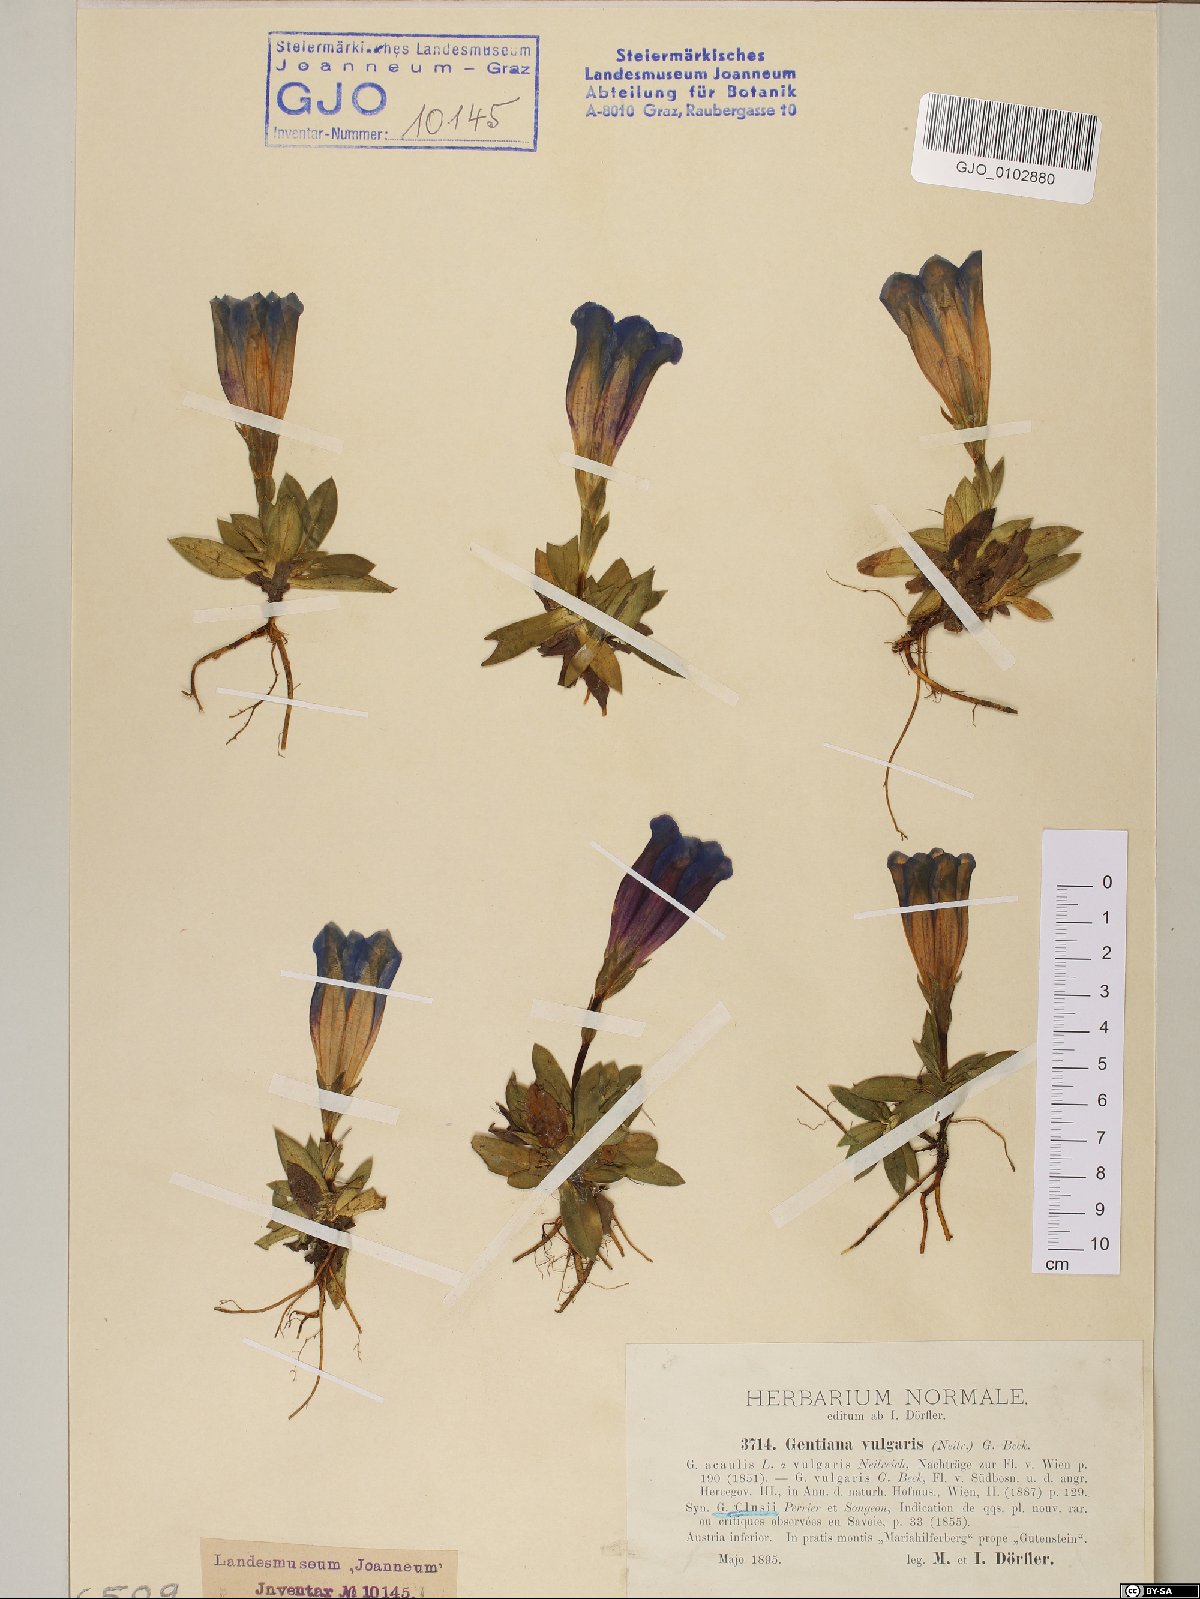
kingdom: Plantae
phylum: Tracheophyta
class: Magnoliopsida
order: Gentianales
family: Gentianaceae
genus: Gentiana
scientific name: Gentiana clusii
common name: Trumpet gentian
